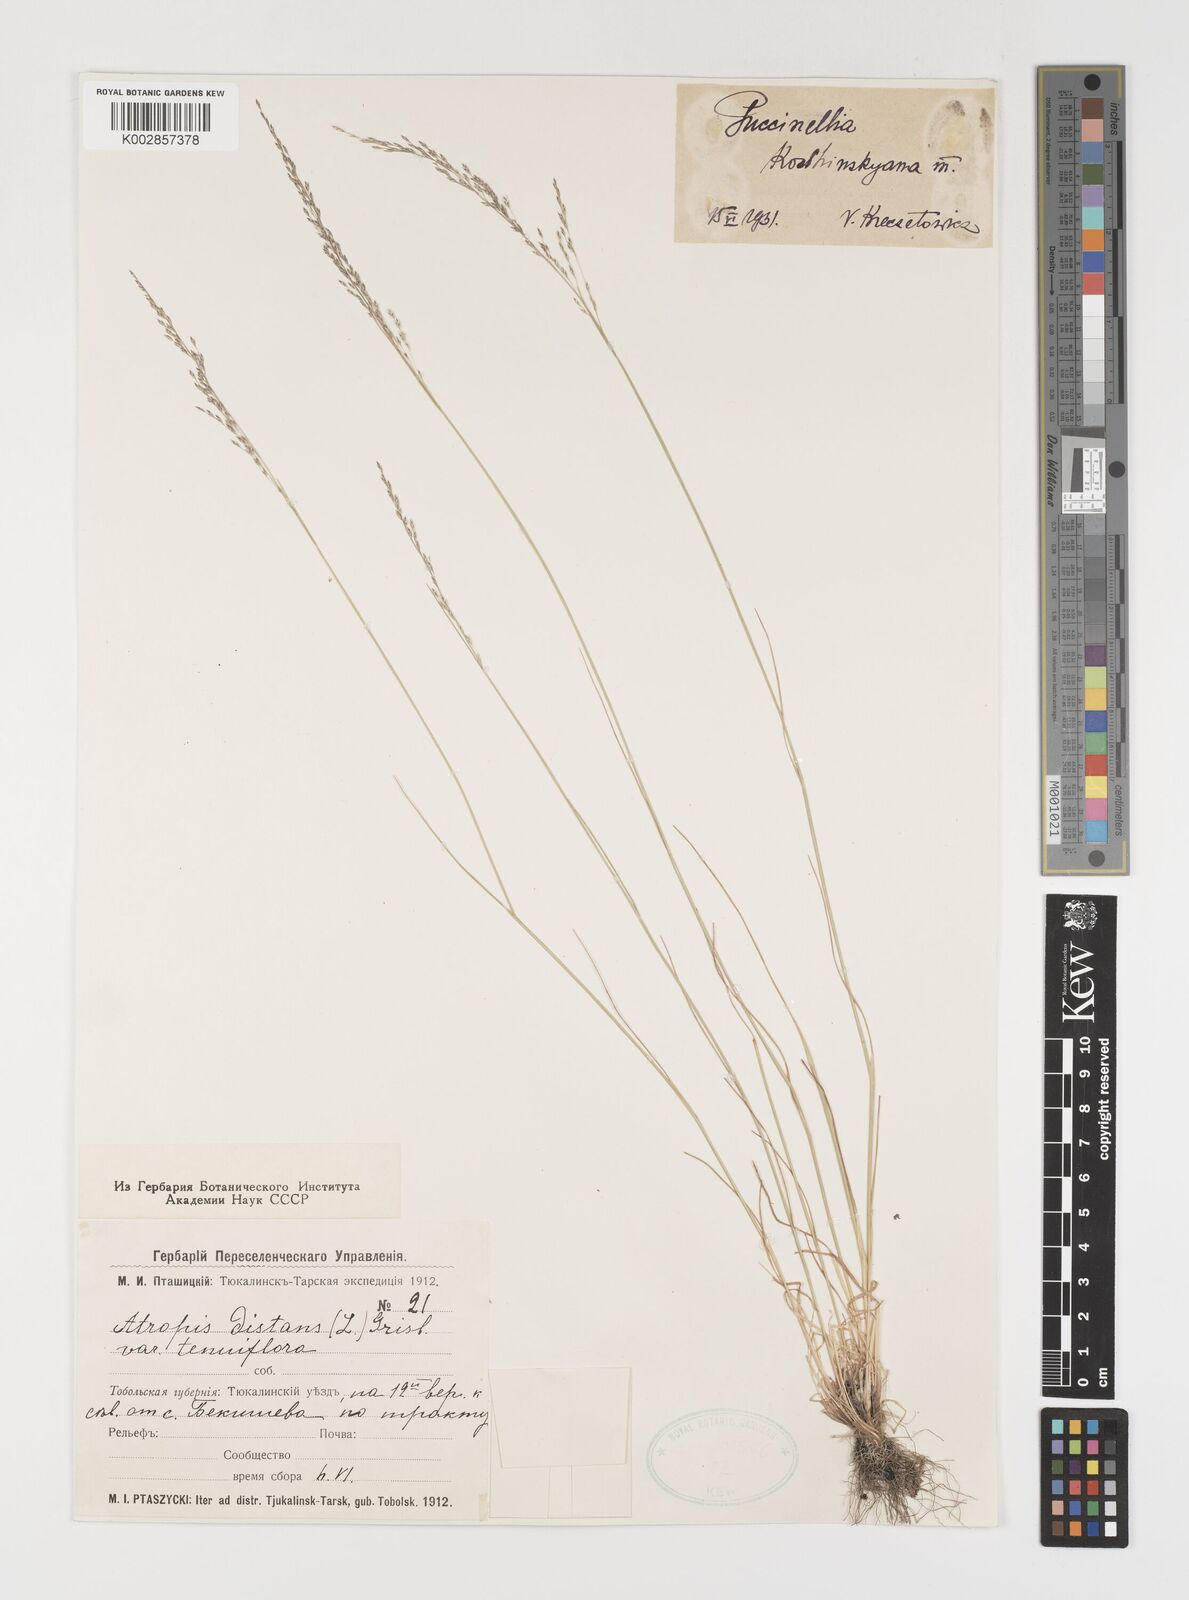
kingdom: Plantae
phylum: Tracheophyta
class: Liliopsida
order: Poales
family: Poaceae
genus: Puccinellia
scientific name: Puccinellia tenuiflora
